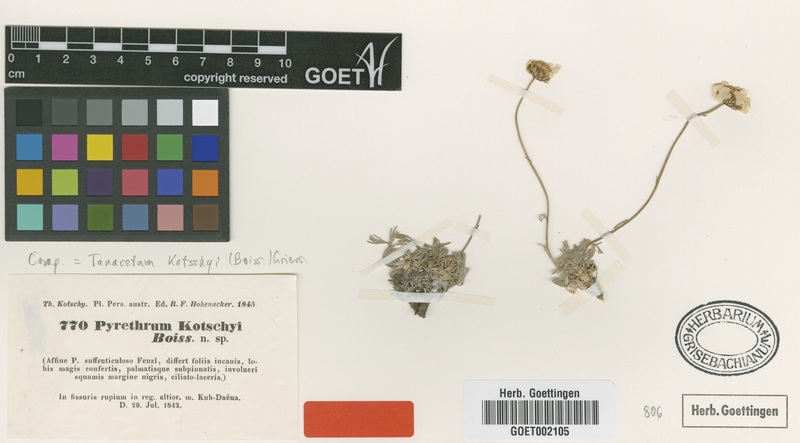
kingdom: Plantae
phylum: Tracheophyta
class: Magnoliopsida
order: Asterales
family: Asteraceae
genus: Tanacetum
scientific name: Tanacetum kotschyi
